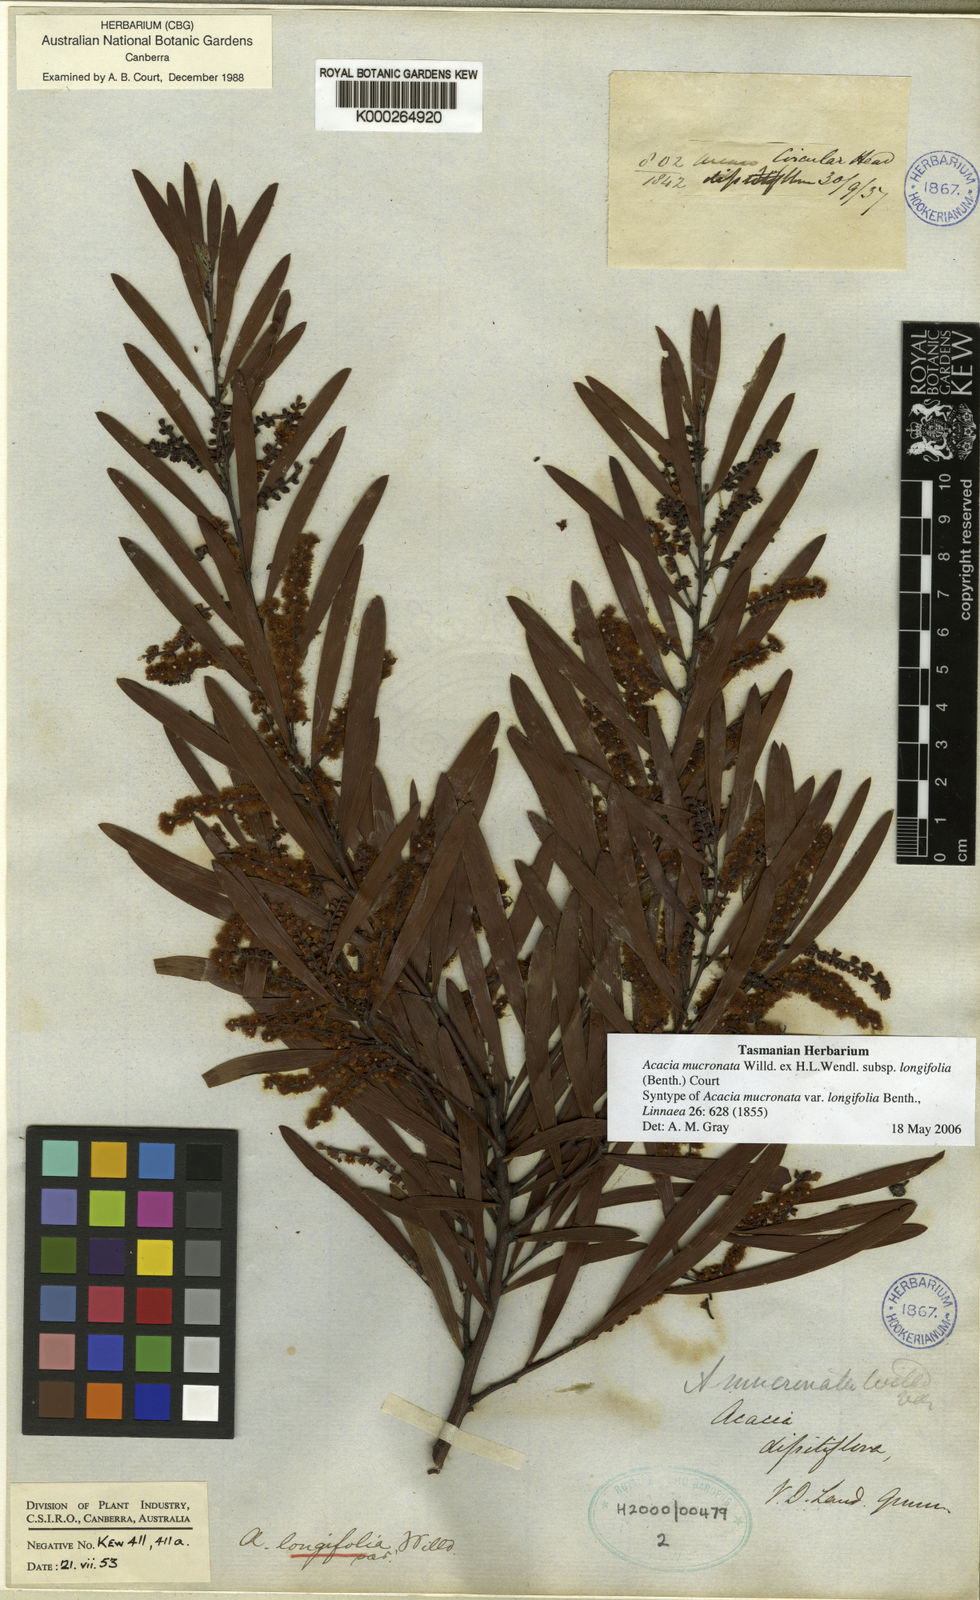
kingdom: Plantae
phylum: Tracheophyta
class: Magnoliopsida
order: Fabales
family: Fabaceae
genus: Acacia
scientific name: Acacia
